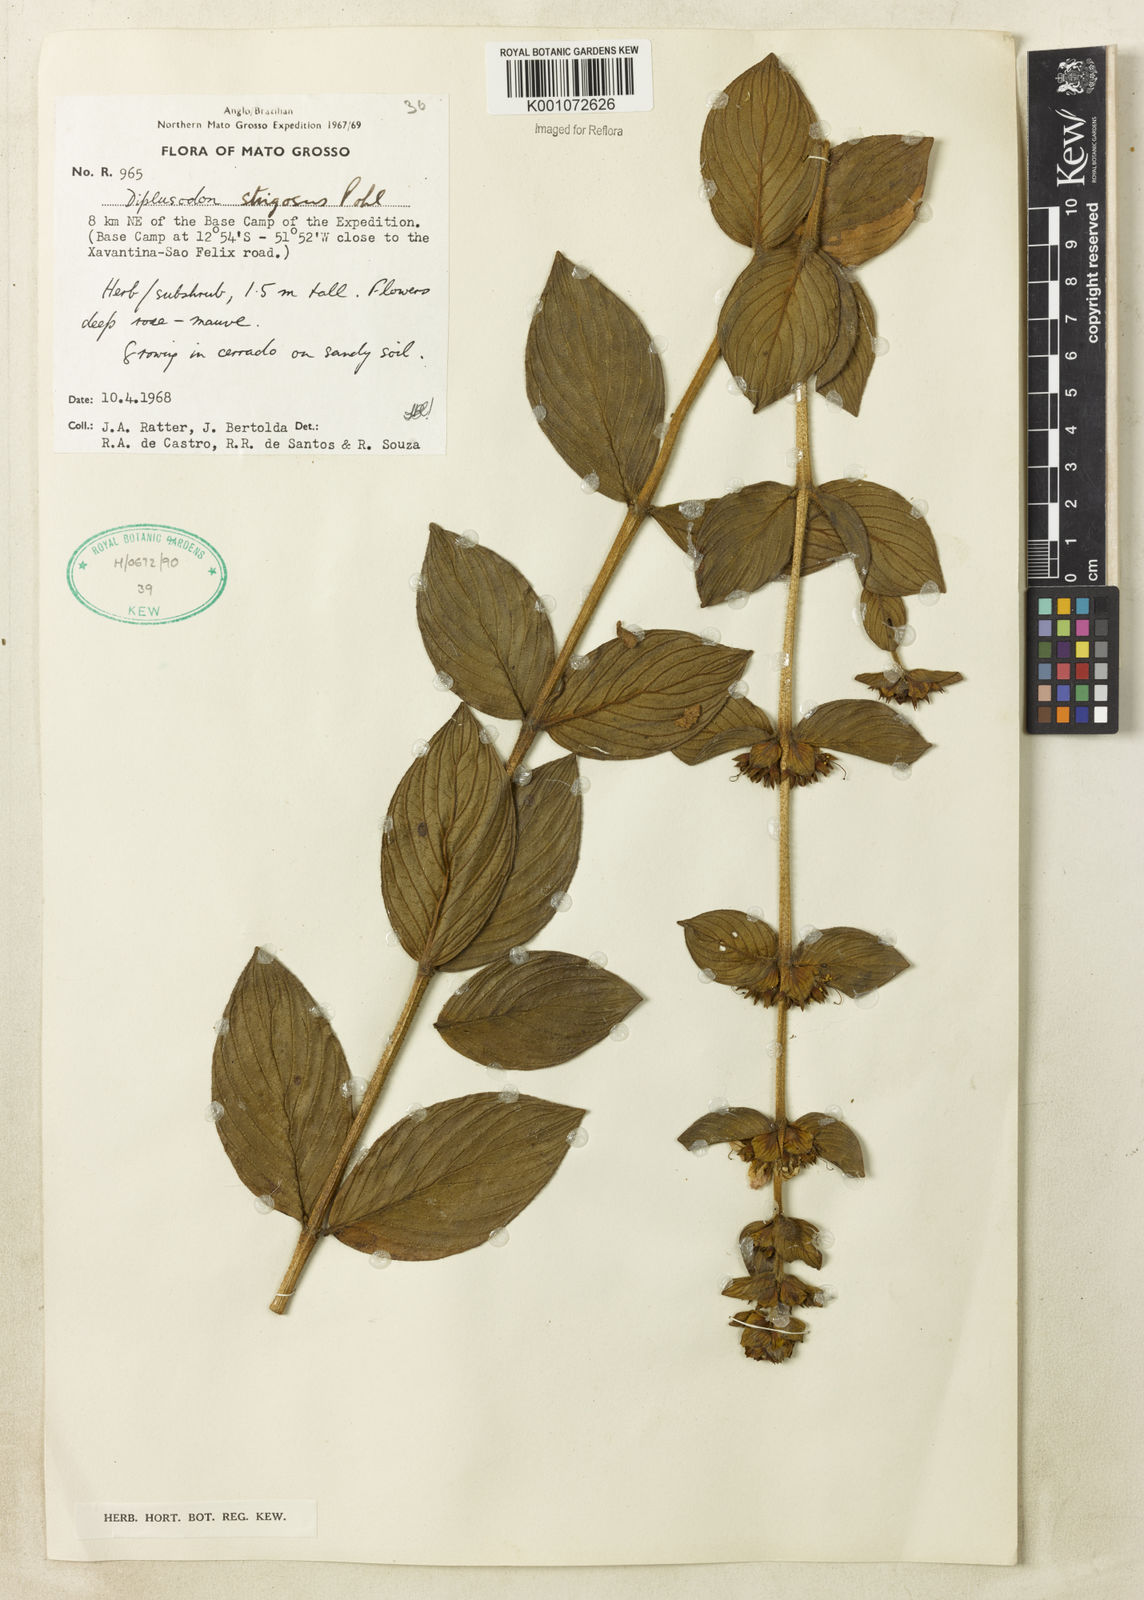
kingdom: Plantae
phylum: Tracheophyta
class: Magnoliopsida
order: Myrtales
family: Lythraceae
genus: Diplusodon
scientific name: Diplusodon strigosus
